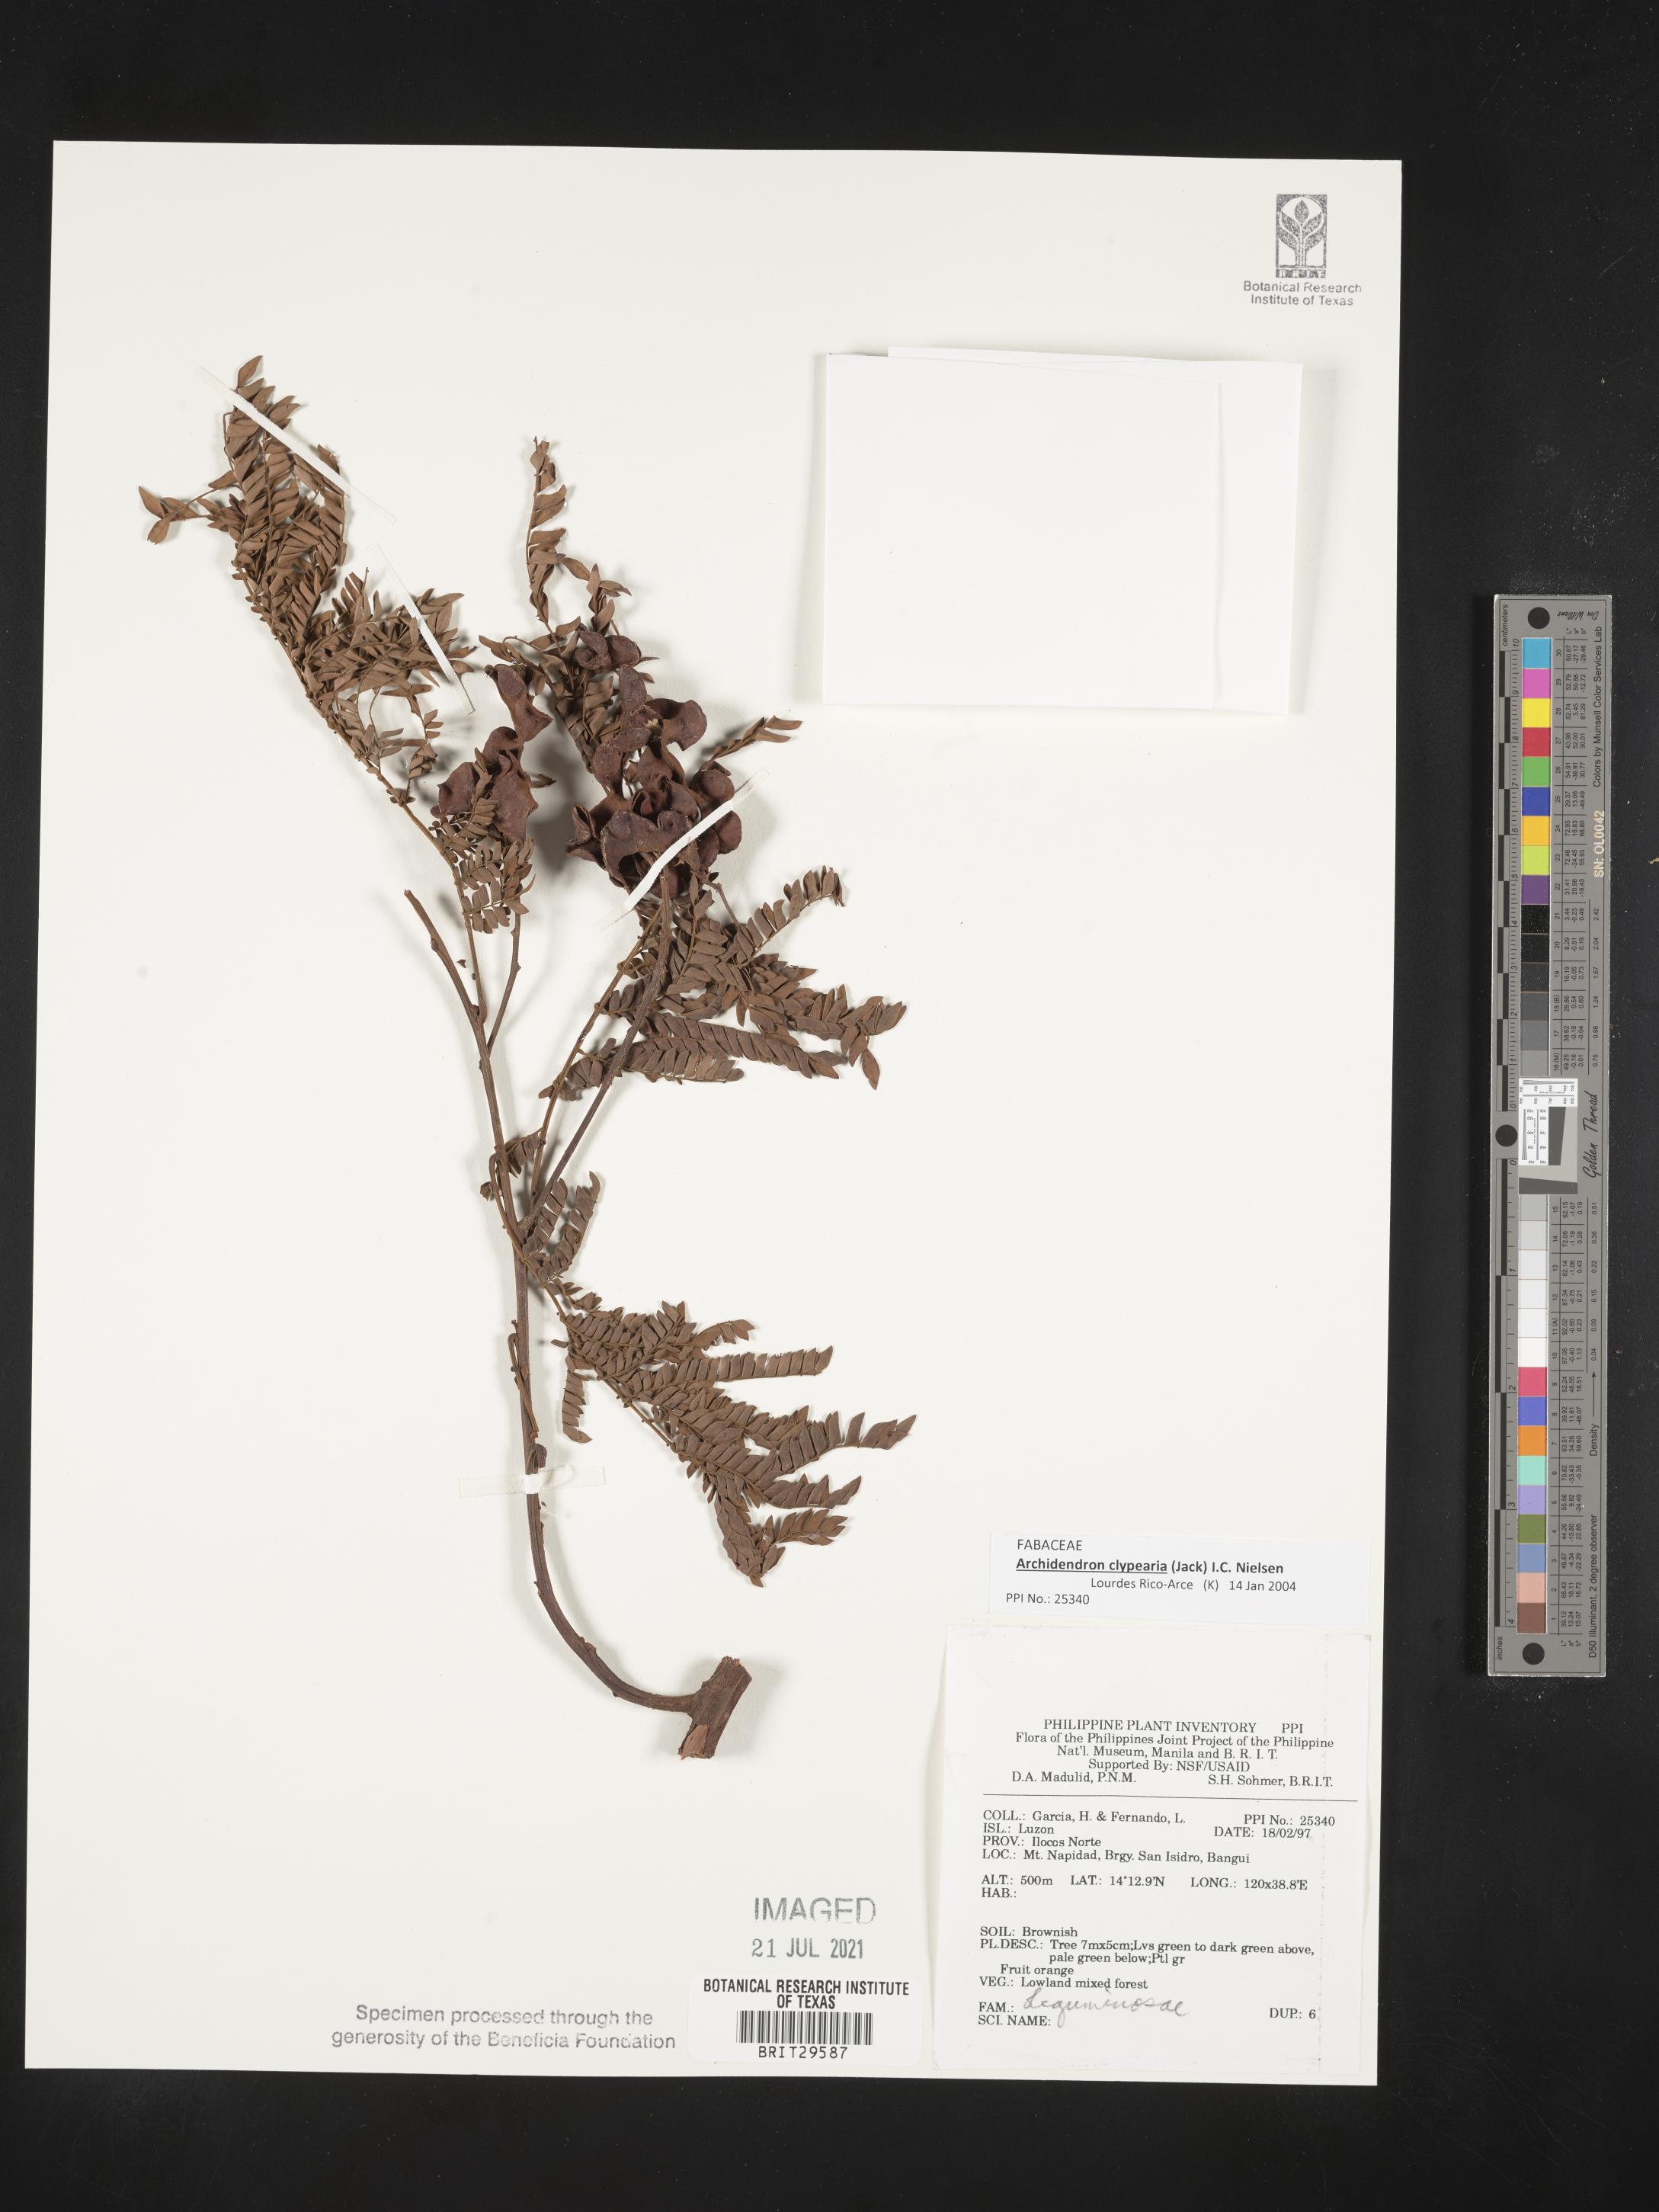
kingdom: Plantae
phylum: Tracheophyta
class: Magnoliopsida
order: Fabales
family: Fabaceae
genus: Archidendron
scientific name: Archidendron clypearia
